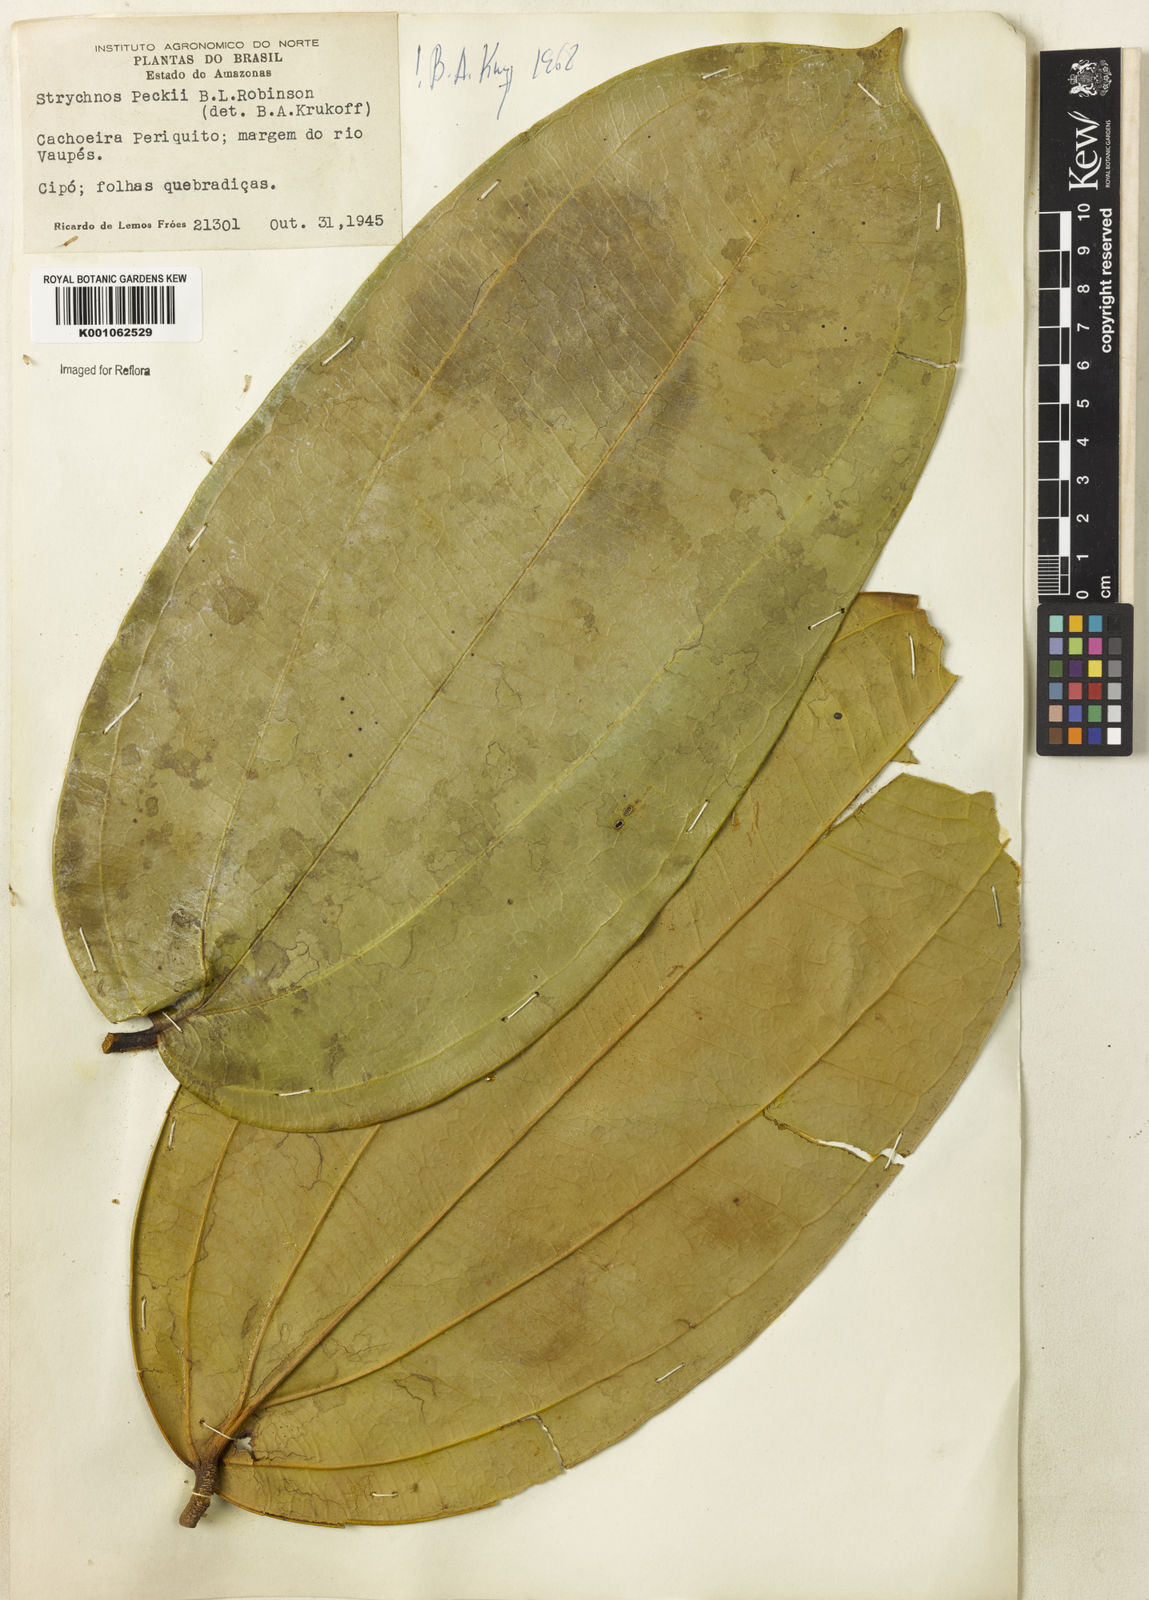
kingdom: Plantae
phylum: Tracheophyta
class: Magnoliopsida
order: Gentianales
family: Loganiaceae
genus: Strychnos
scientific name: Strychnos peckii
